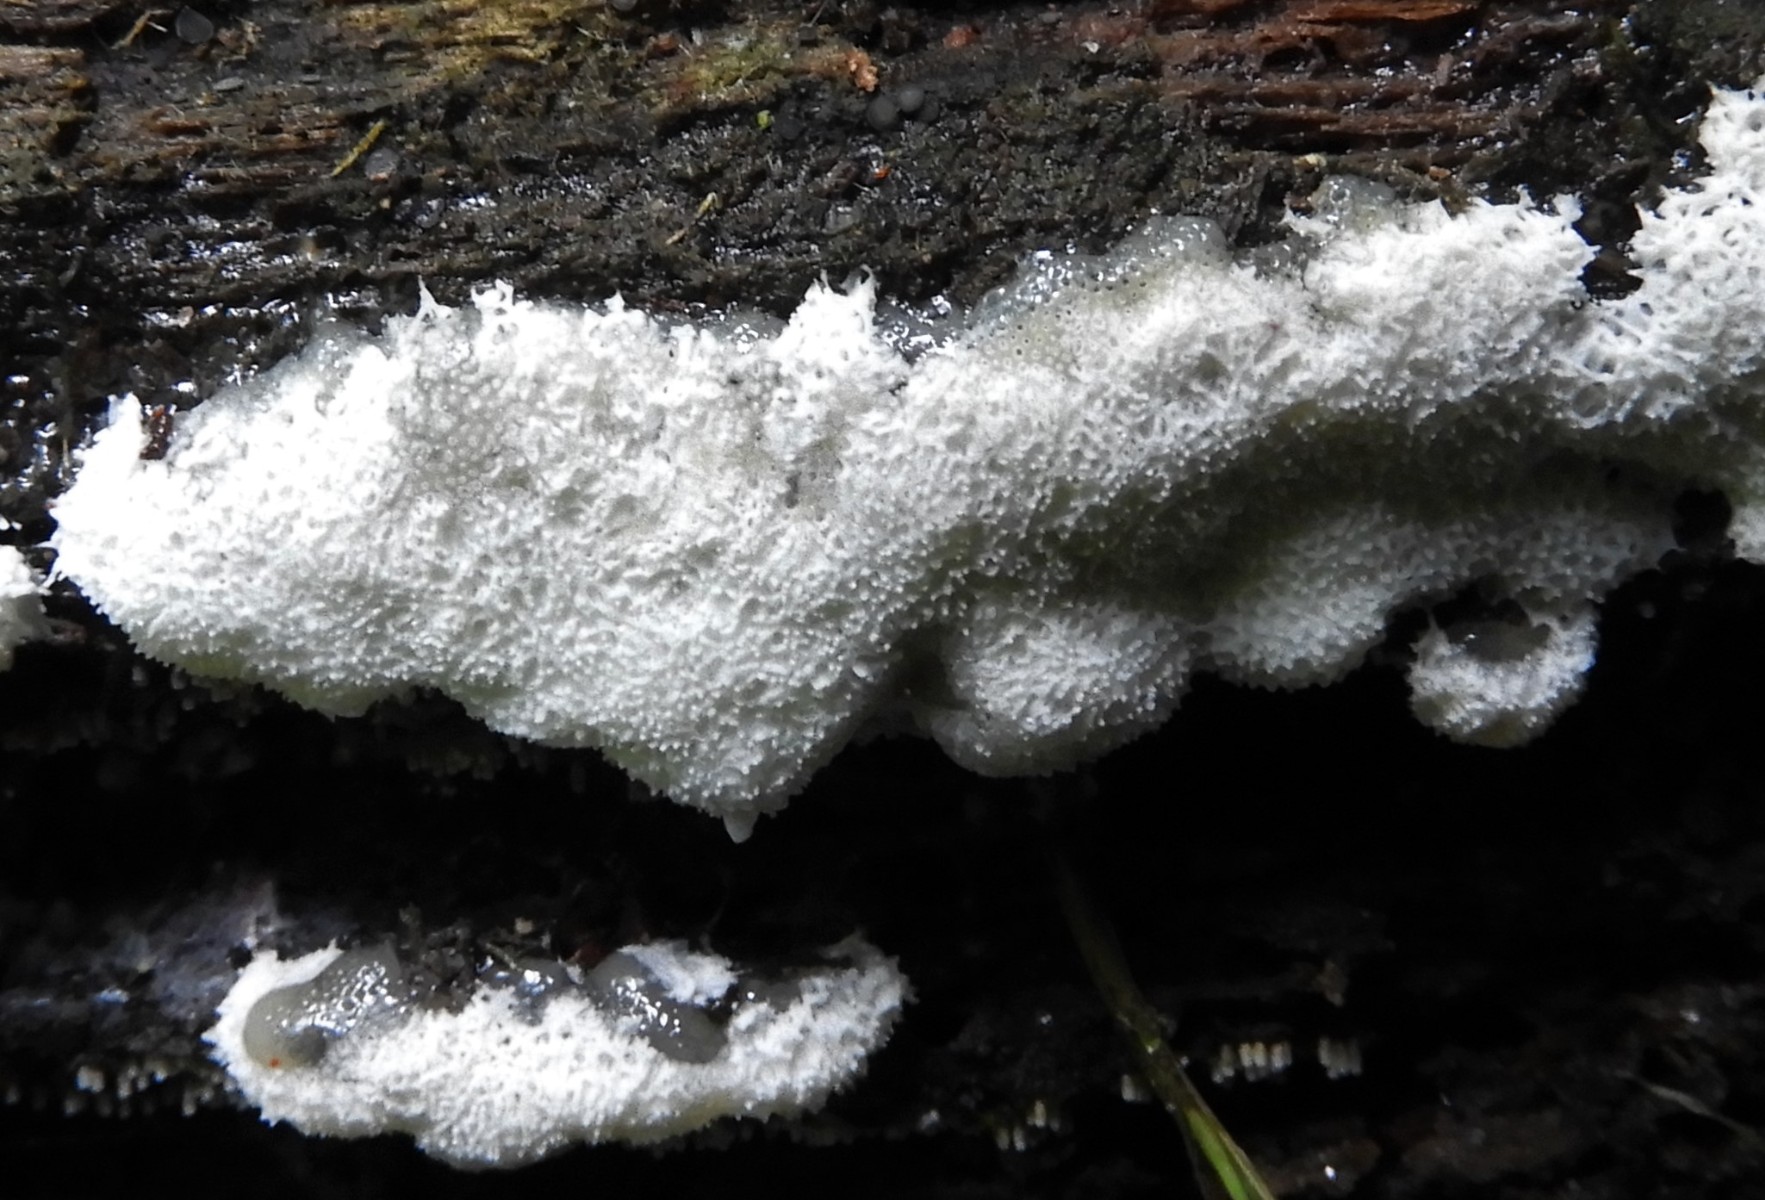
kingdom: Protozoa
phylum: Mycetozoa
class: Protosteliomycetes
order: Ceratiomyxales
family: Ceratiomyxaceae
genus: Ceratiomyxa
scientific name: Ceratiomyxa fruticulosa
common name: Honeycomb coral slime mold
